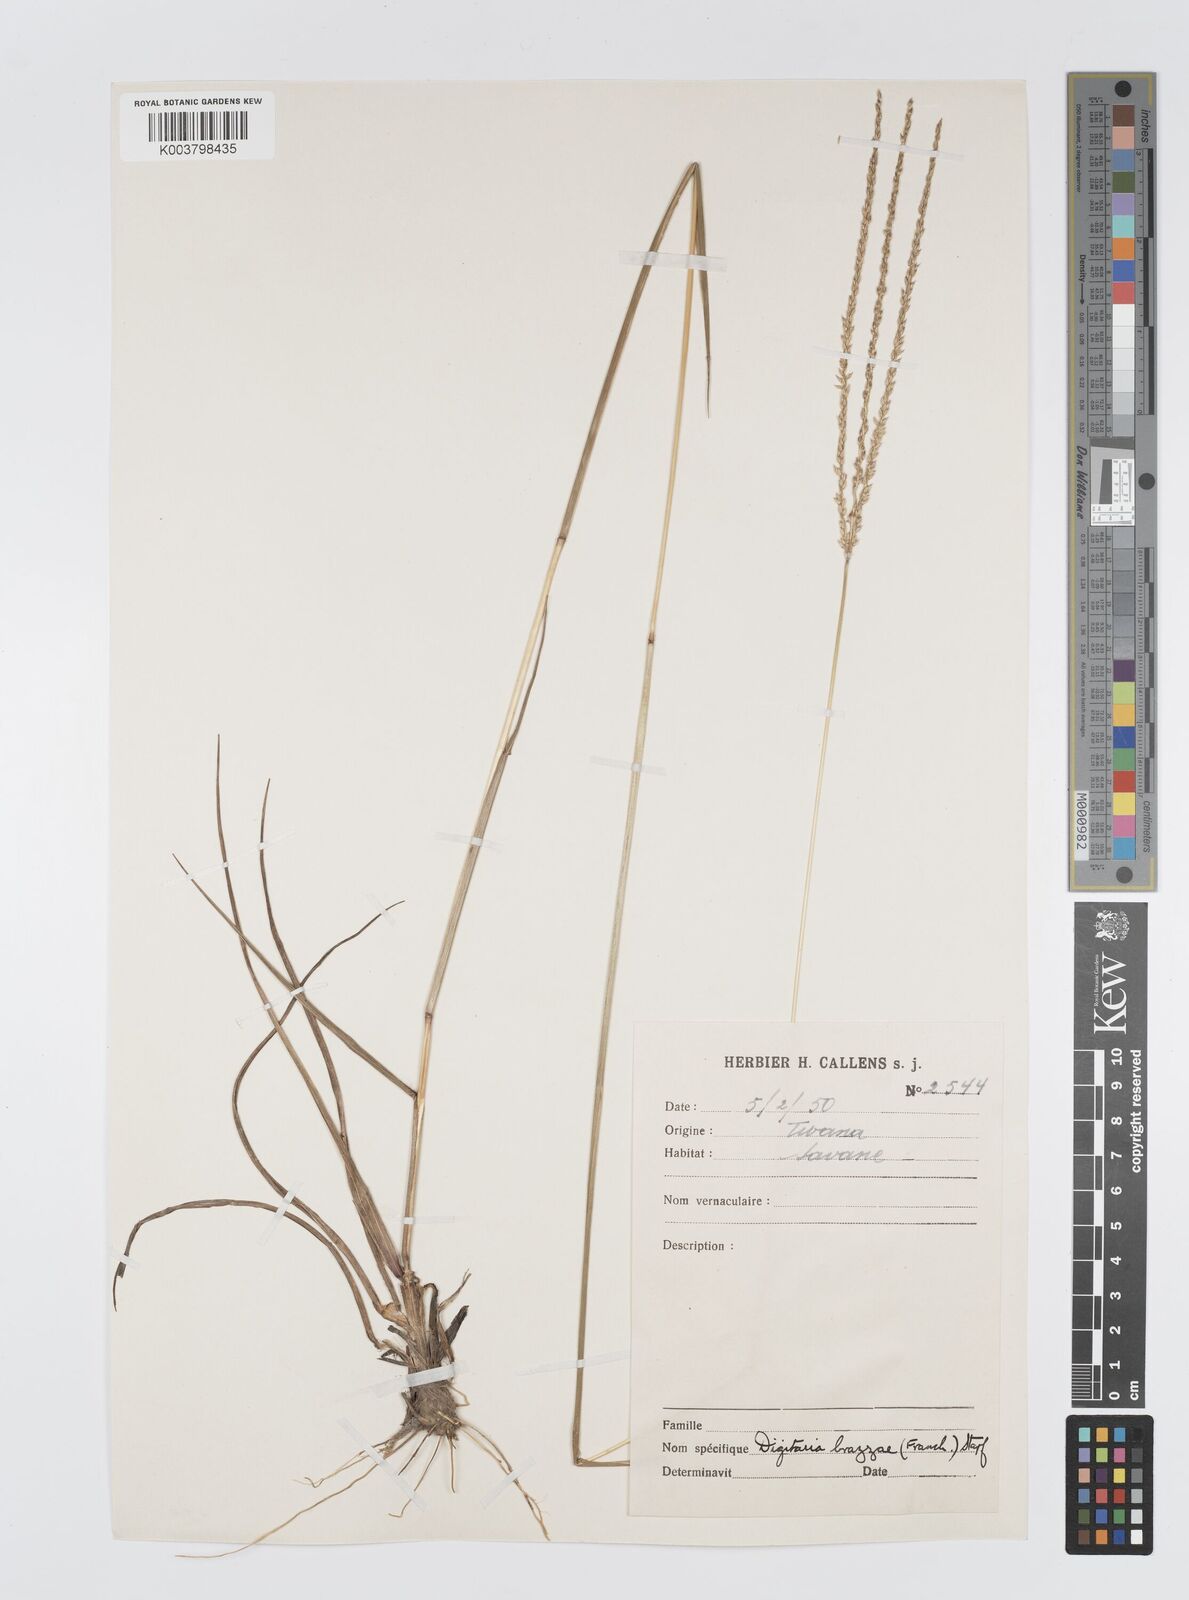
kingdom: Plantae
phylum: Tracheophyta
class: Liliopsida
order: Poales
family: Poaceae
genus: Digitaria
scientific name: Digitaria brazzae
